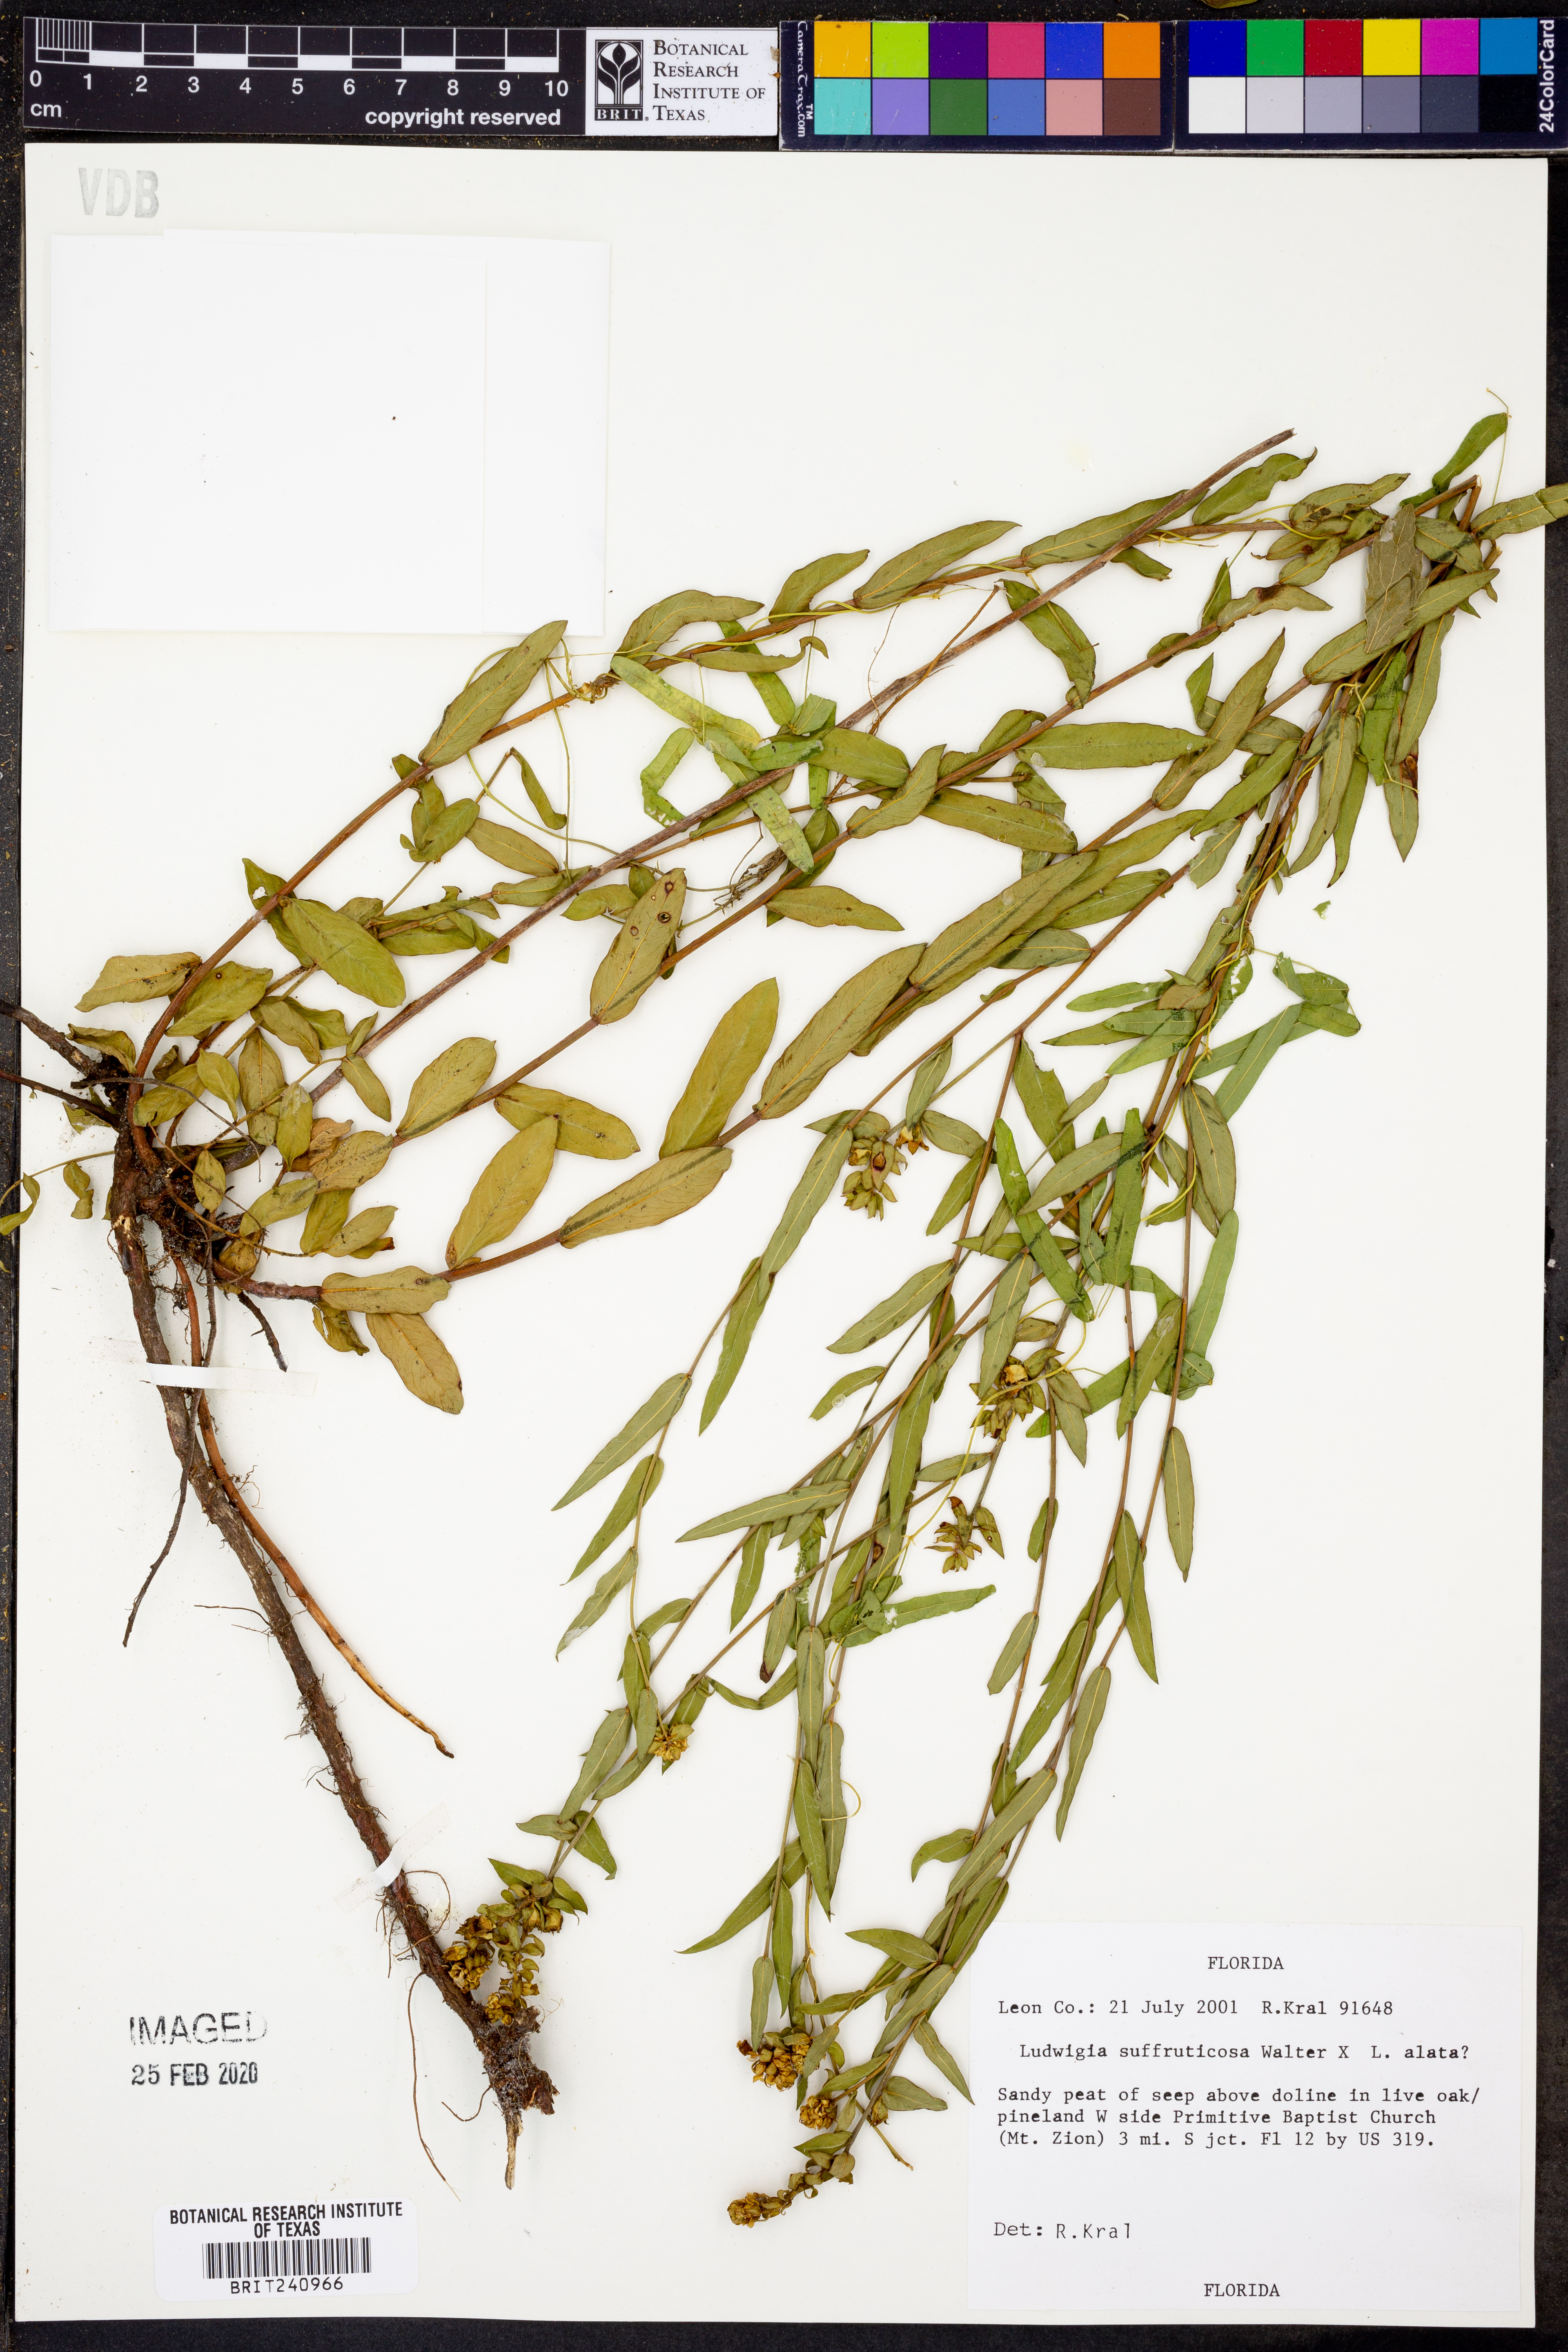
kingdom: Plantae
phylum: Tracheophyta
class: Magnoliopsida
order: Myrtales
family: Onagraceae
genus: Ludwigia
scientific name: Ludwigia suffruticosa
